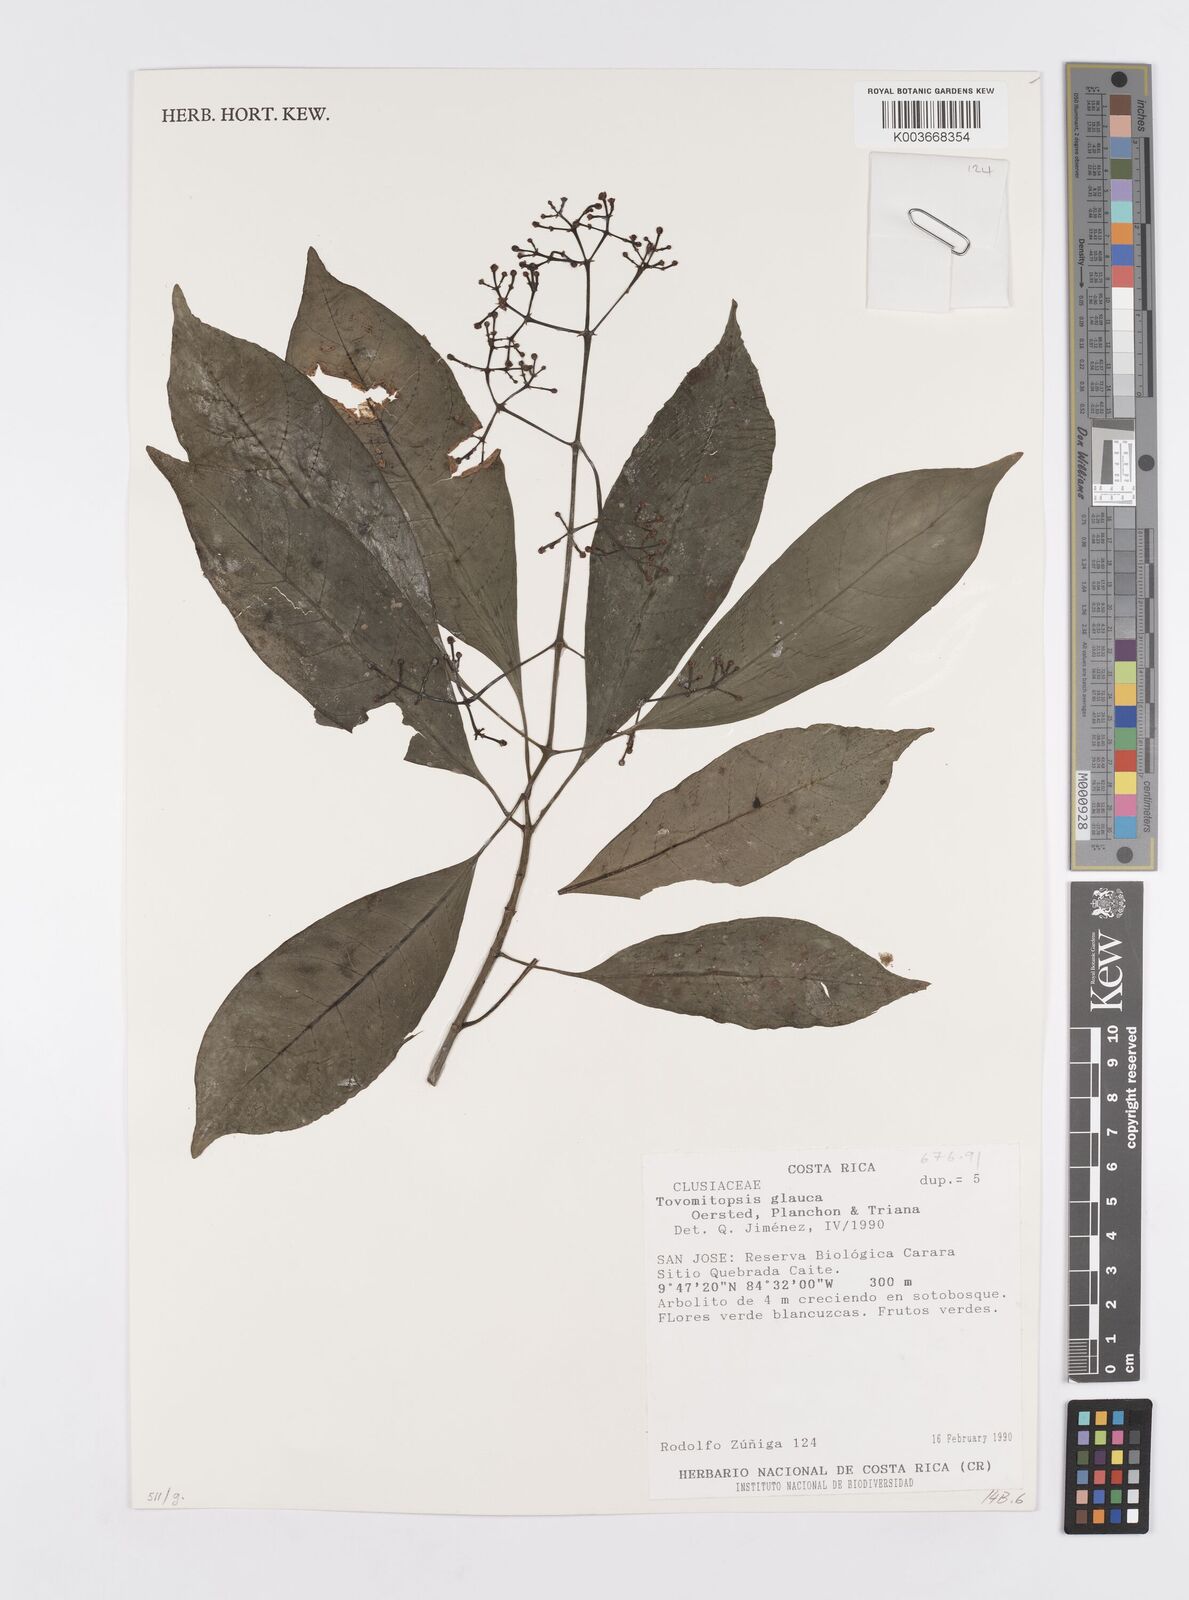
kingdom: Plantae
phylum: Tracheophyta
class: Magnoliopsida
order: Malpighiales
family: Clusiaceae
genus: Chrysochlamys
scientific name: Chrysochlamys glauca
